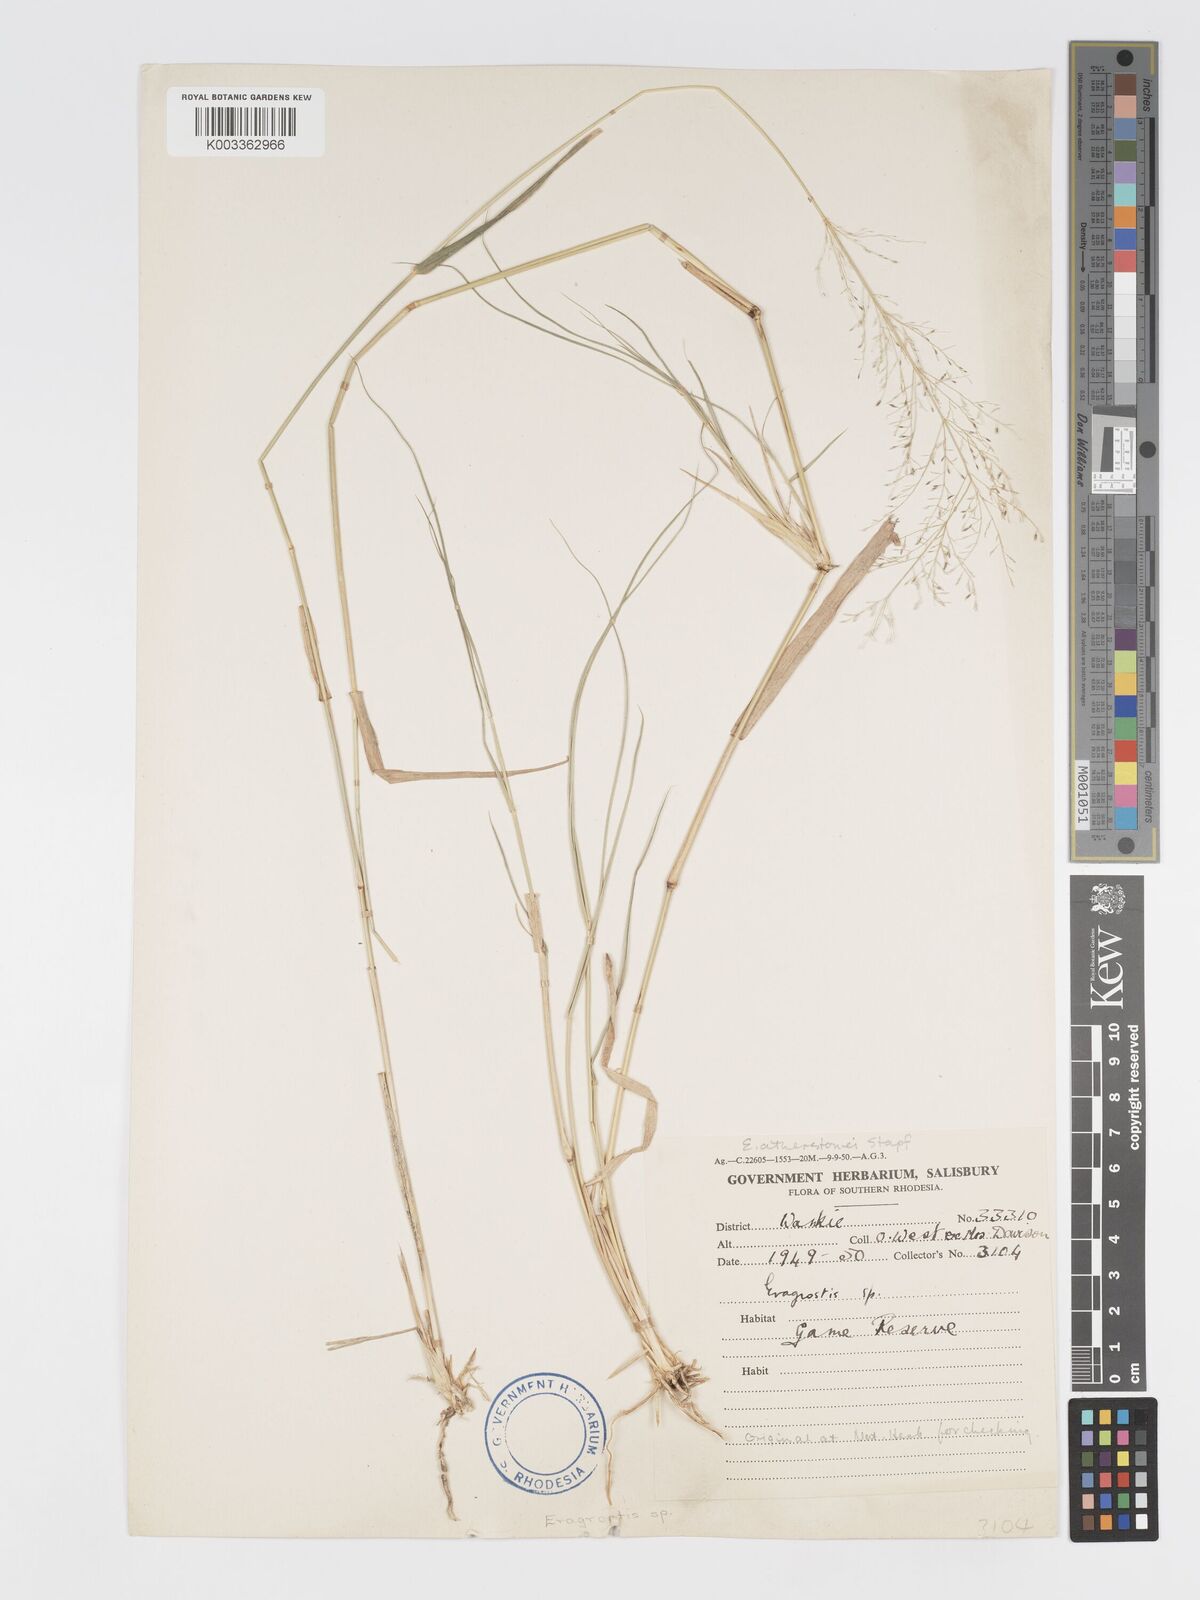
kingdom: Plantae
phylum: Tracheophyta
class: Liliopsida
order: Poales
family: Poaceae
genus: Eragrostis
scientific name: Eragrostis cylindriflora
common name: Cylinderflower lovegrass
